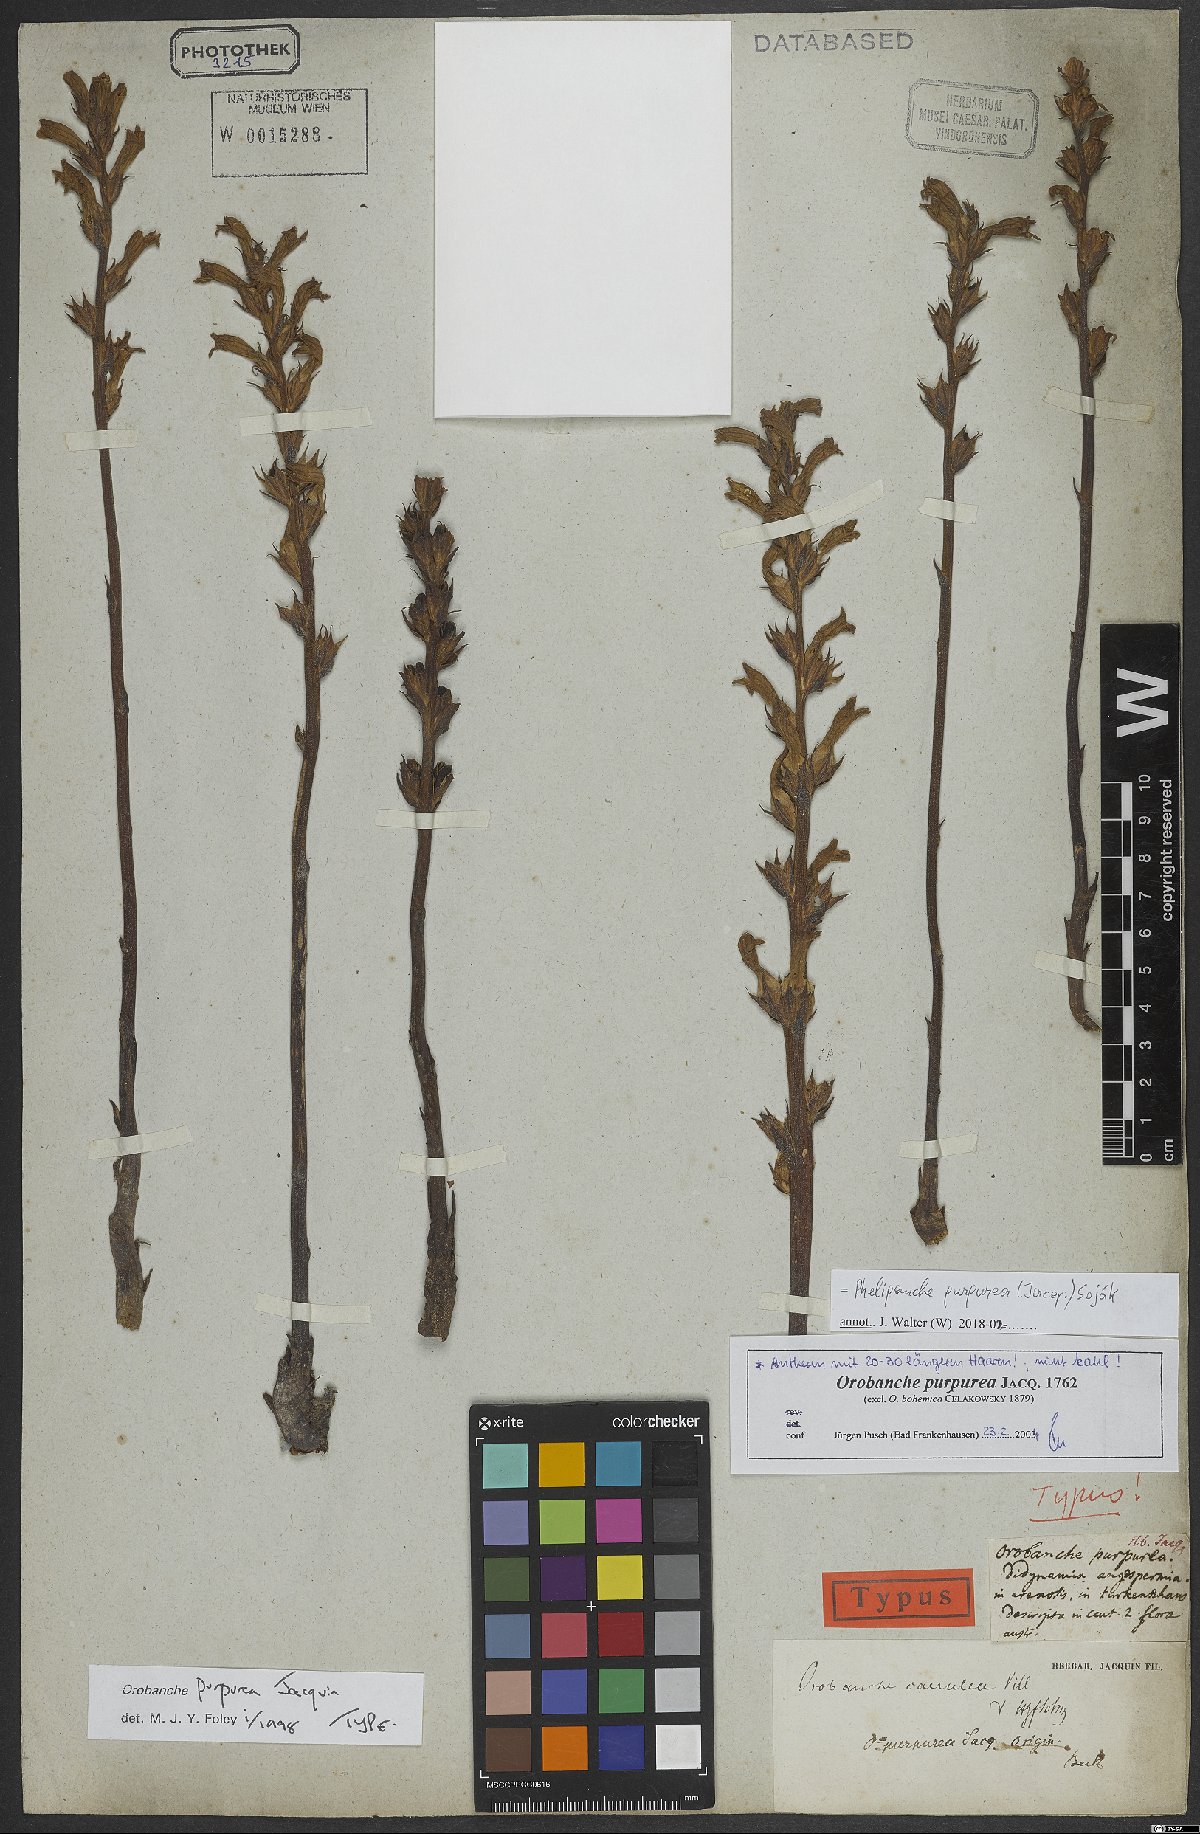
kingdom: Plantae
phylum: Tracheophyta
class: Magnoliopsida
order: Lamiales
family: Orobanchaceae
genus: Phelipanche
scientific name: Phelipanche purpurea
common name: Purple broomrape
